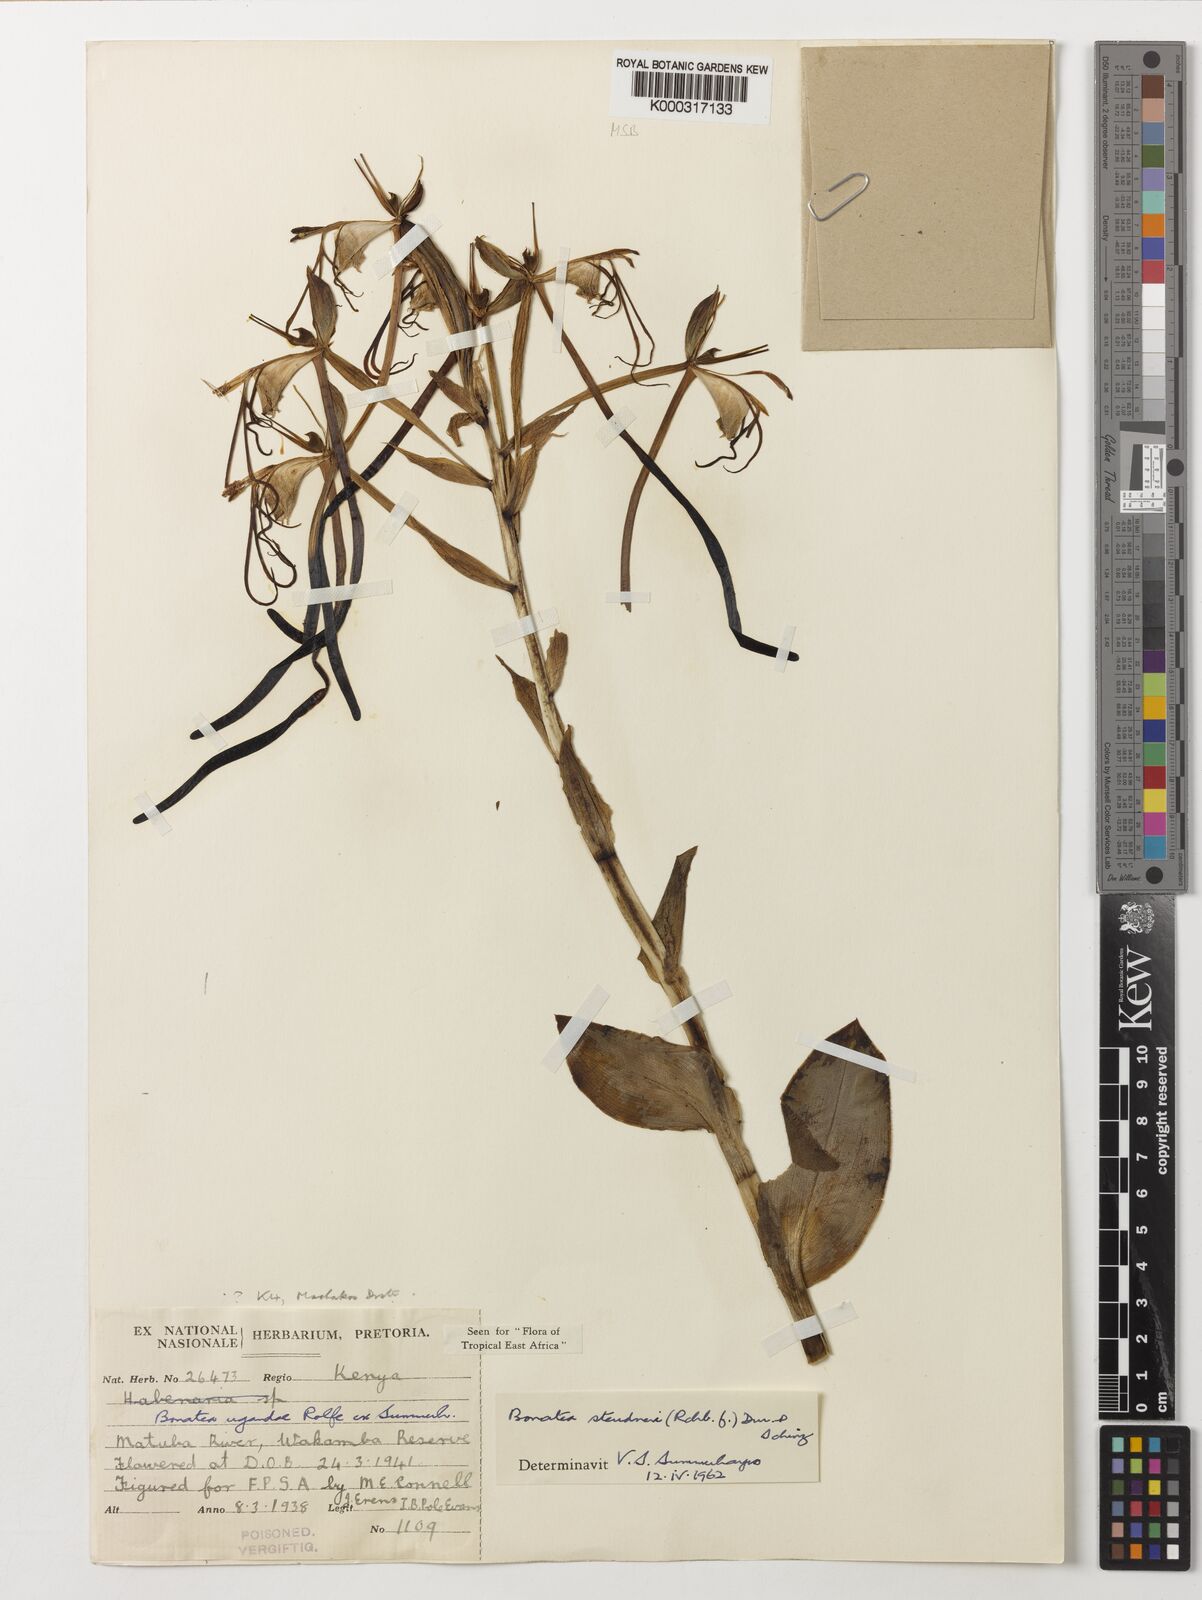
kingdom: Plantae
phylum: Tracheophyta
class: Liliopsida
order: Asparagales
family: Orchidaceae
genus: Bonatea
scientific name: Bonatea steudneri
